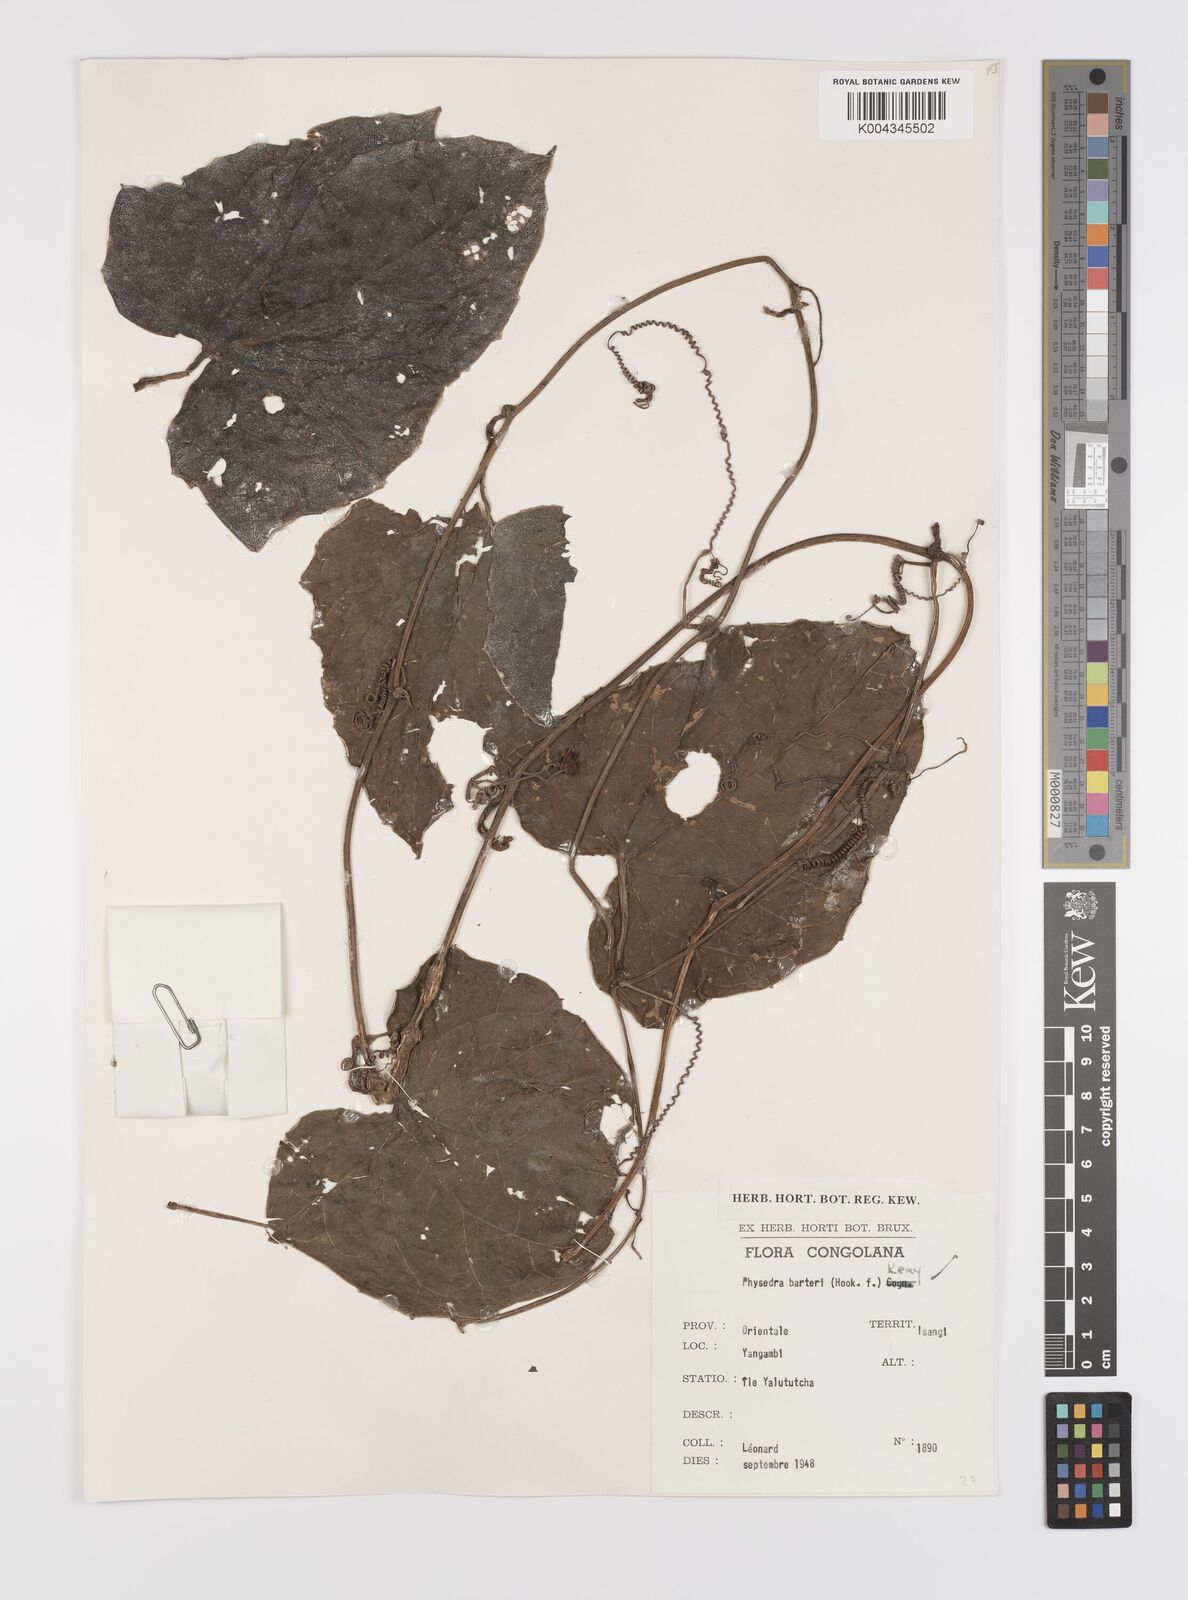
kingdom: Plantae
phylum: Tracheophyta
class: Magnoliopsida
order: Cucurbitales
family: Cucurbitaceae
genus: Coccinia
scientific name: Coccinia barteri
